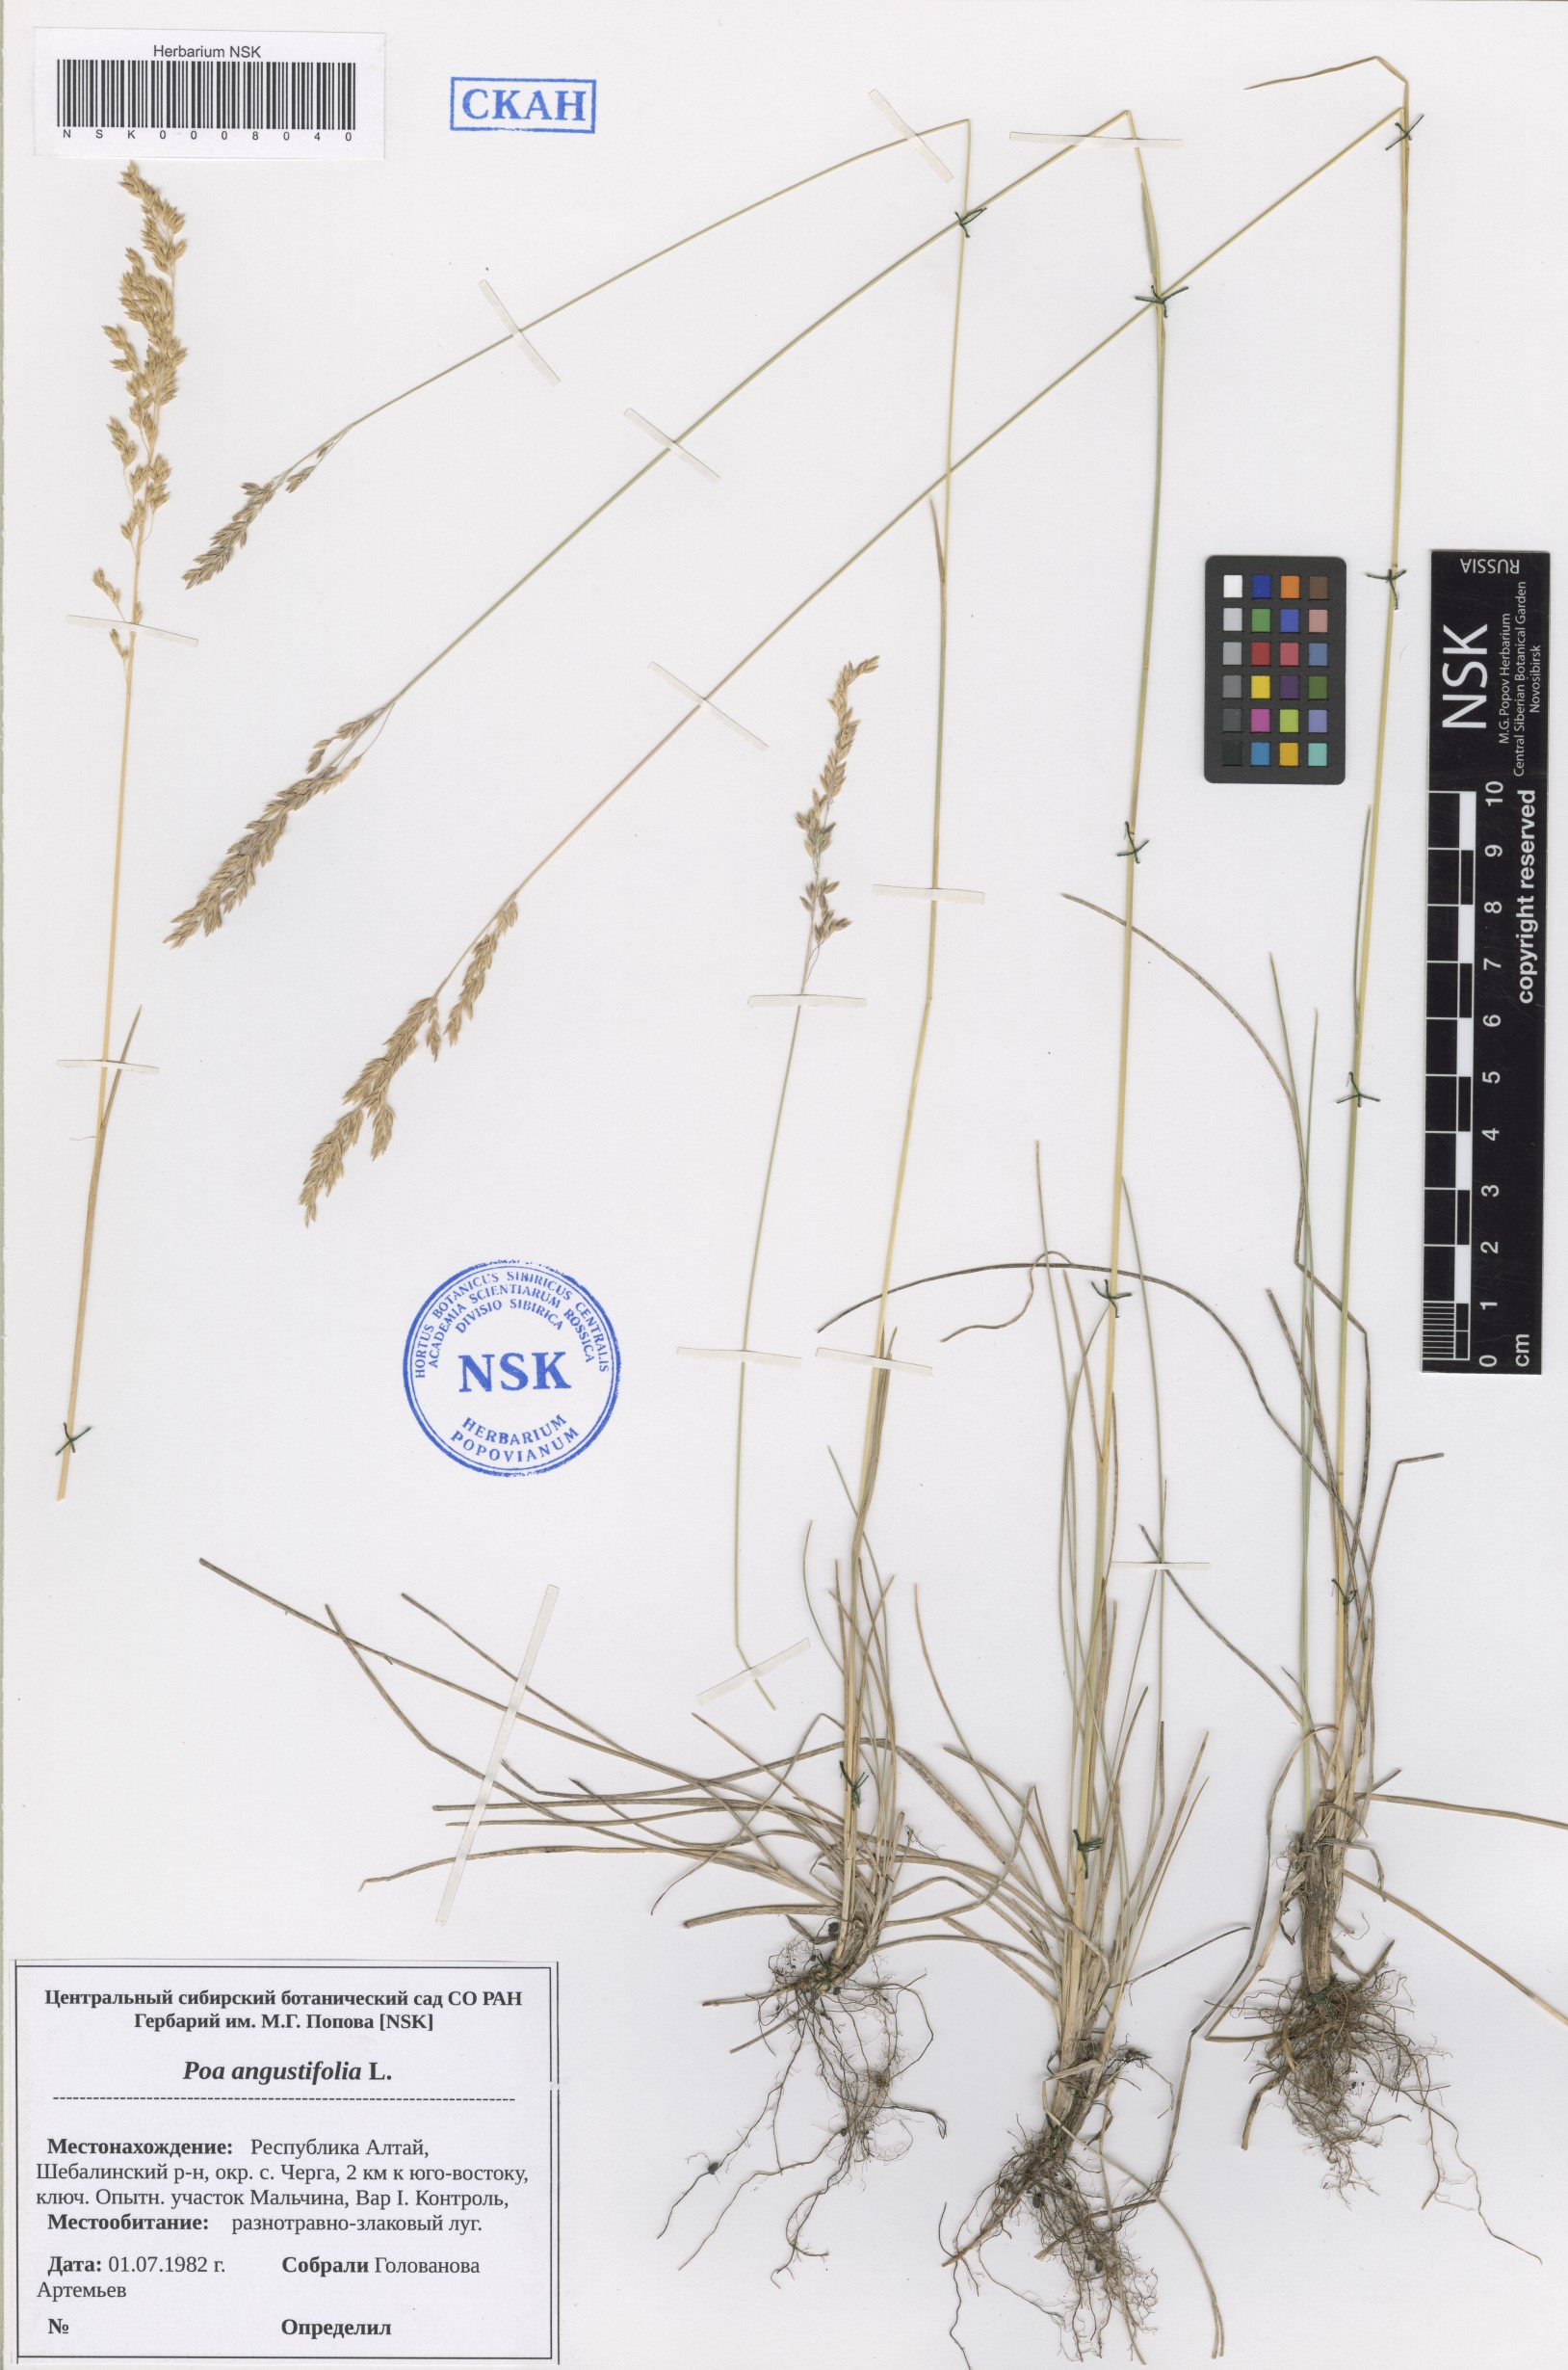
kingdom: Plantae
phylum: Tracheophyta
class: Liliopsida
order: Poales
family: Poaceae
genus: Poa
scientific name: Poa angustifolia
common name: Narrow-leaved meadow-grass
